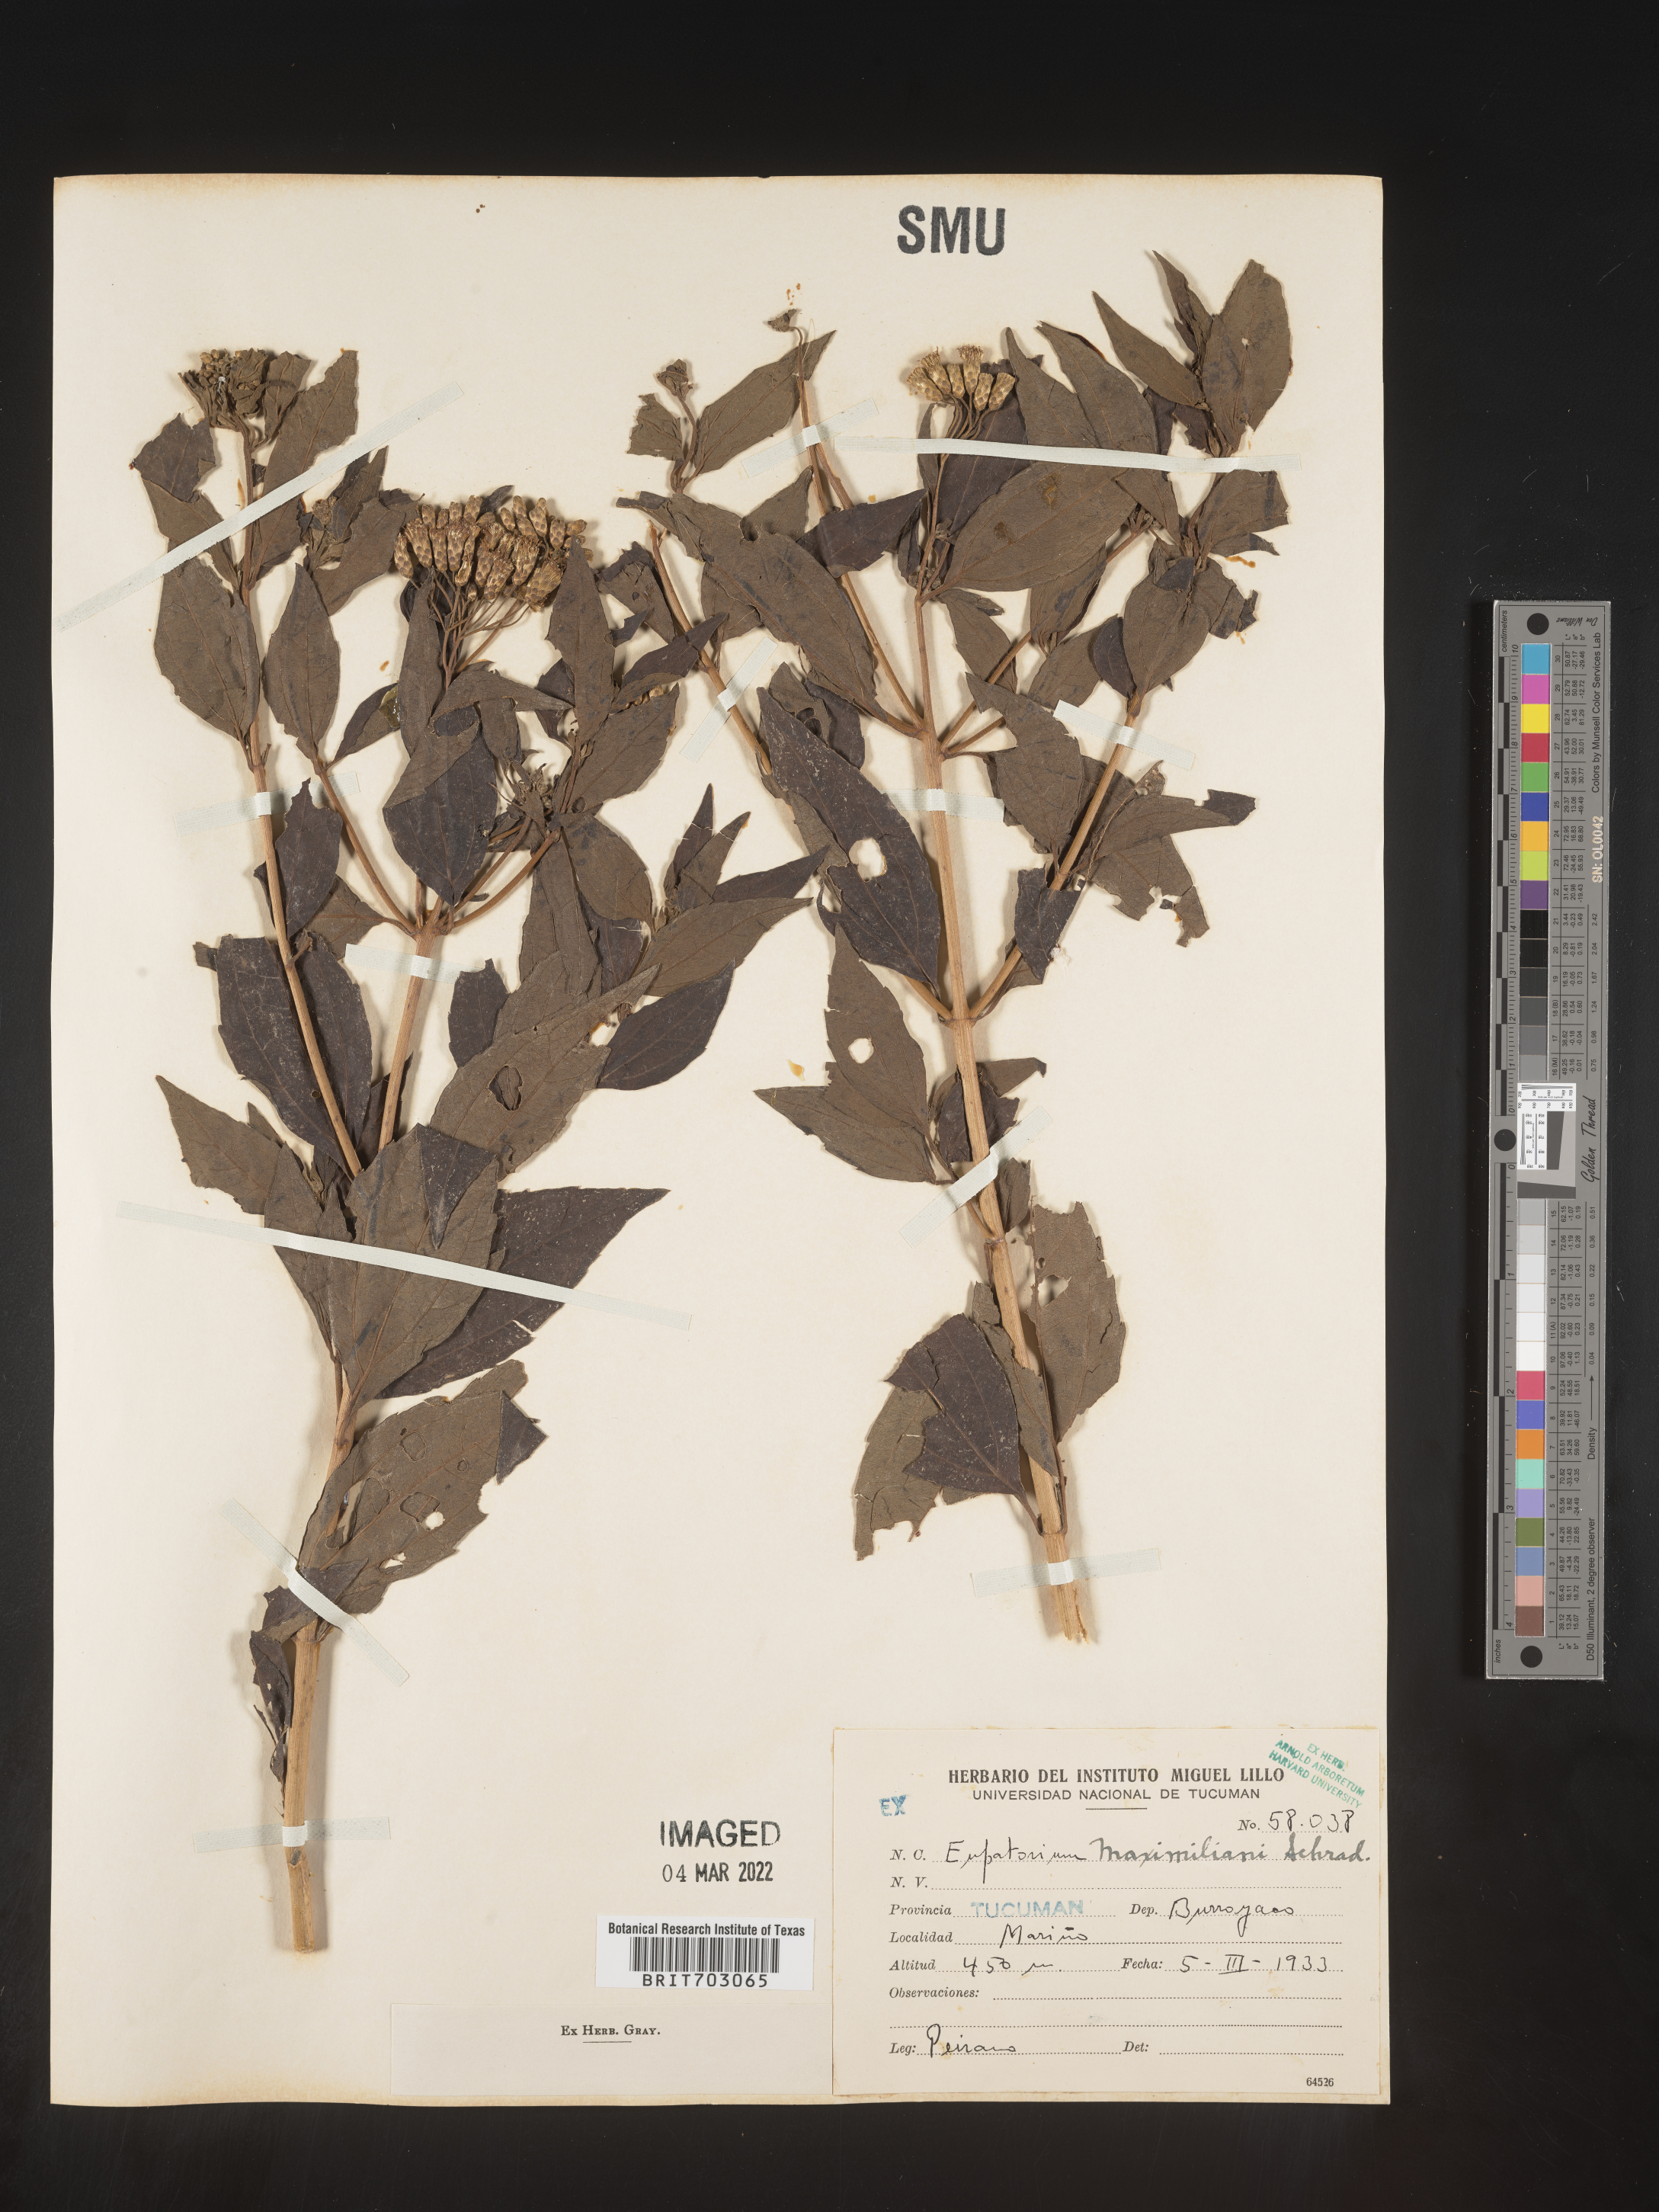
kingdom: Plantae
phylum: Tracheophyta
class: Magnoliopsida
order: Asterales
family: Asteraceae
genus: Eupatorium
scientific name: Eupatorium
